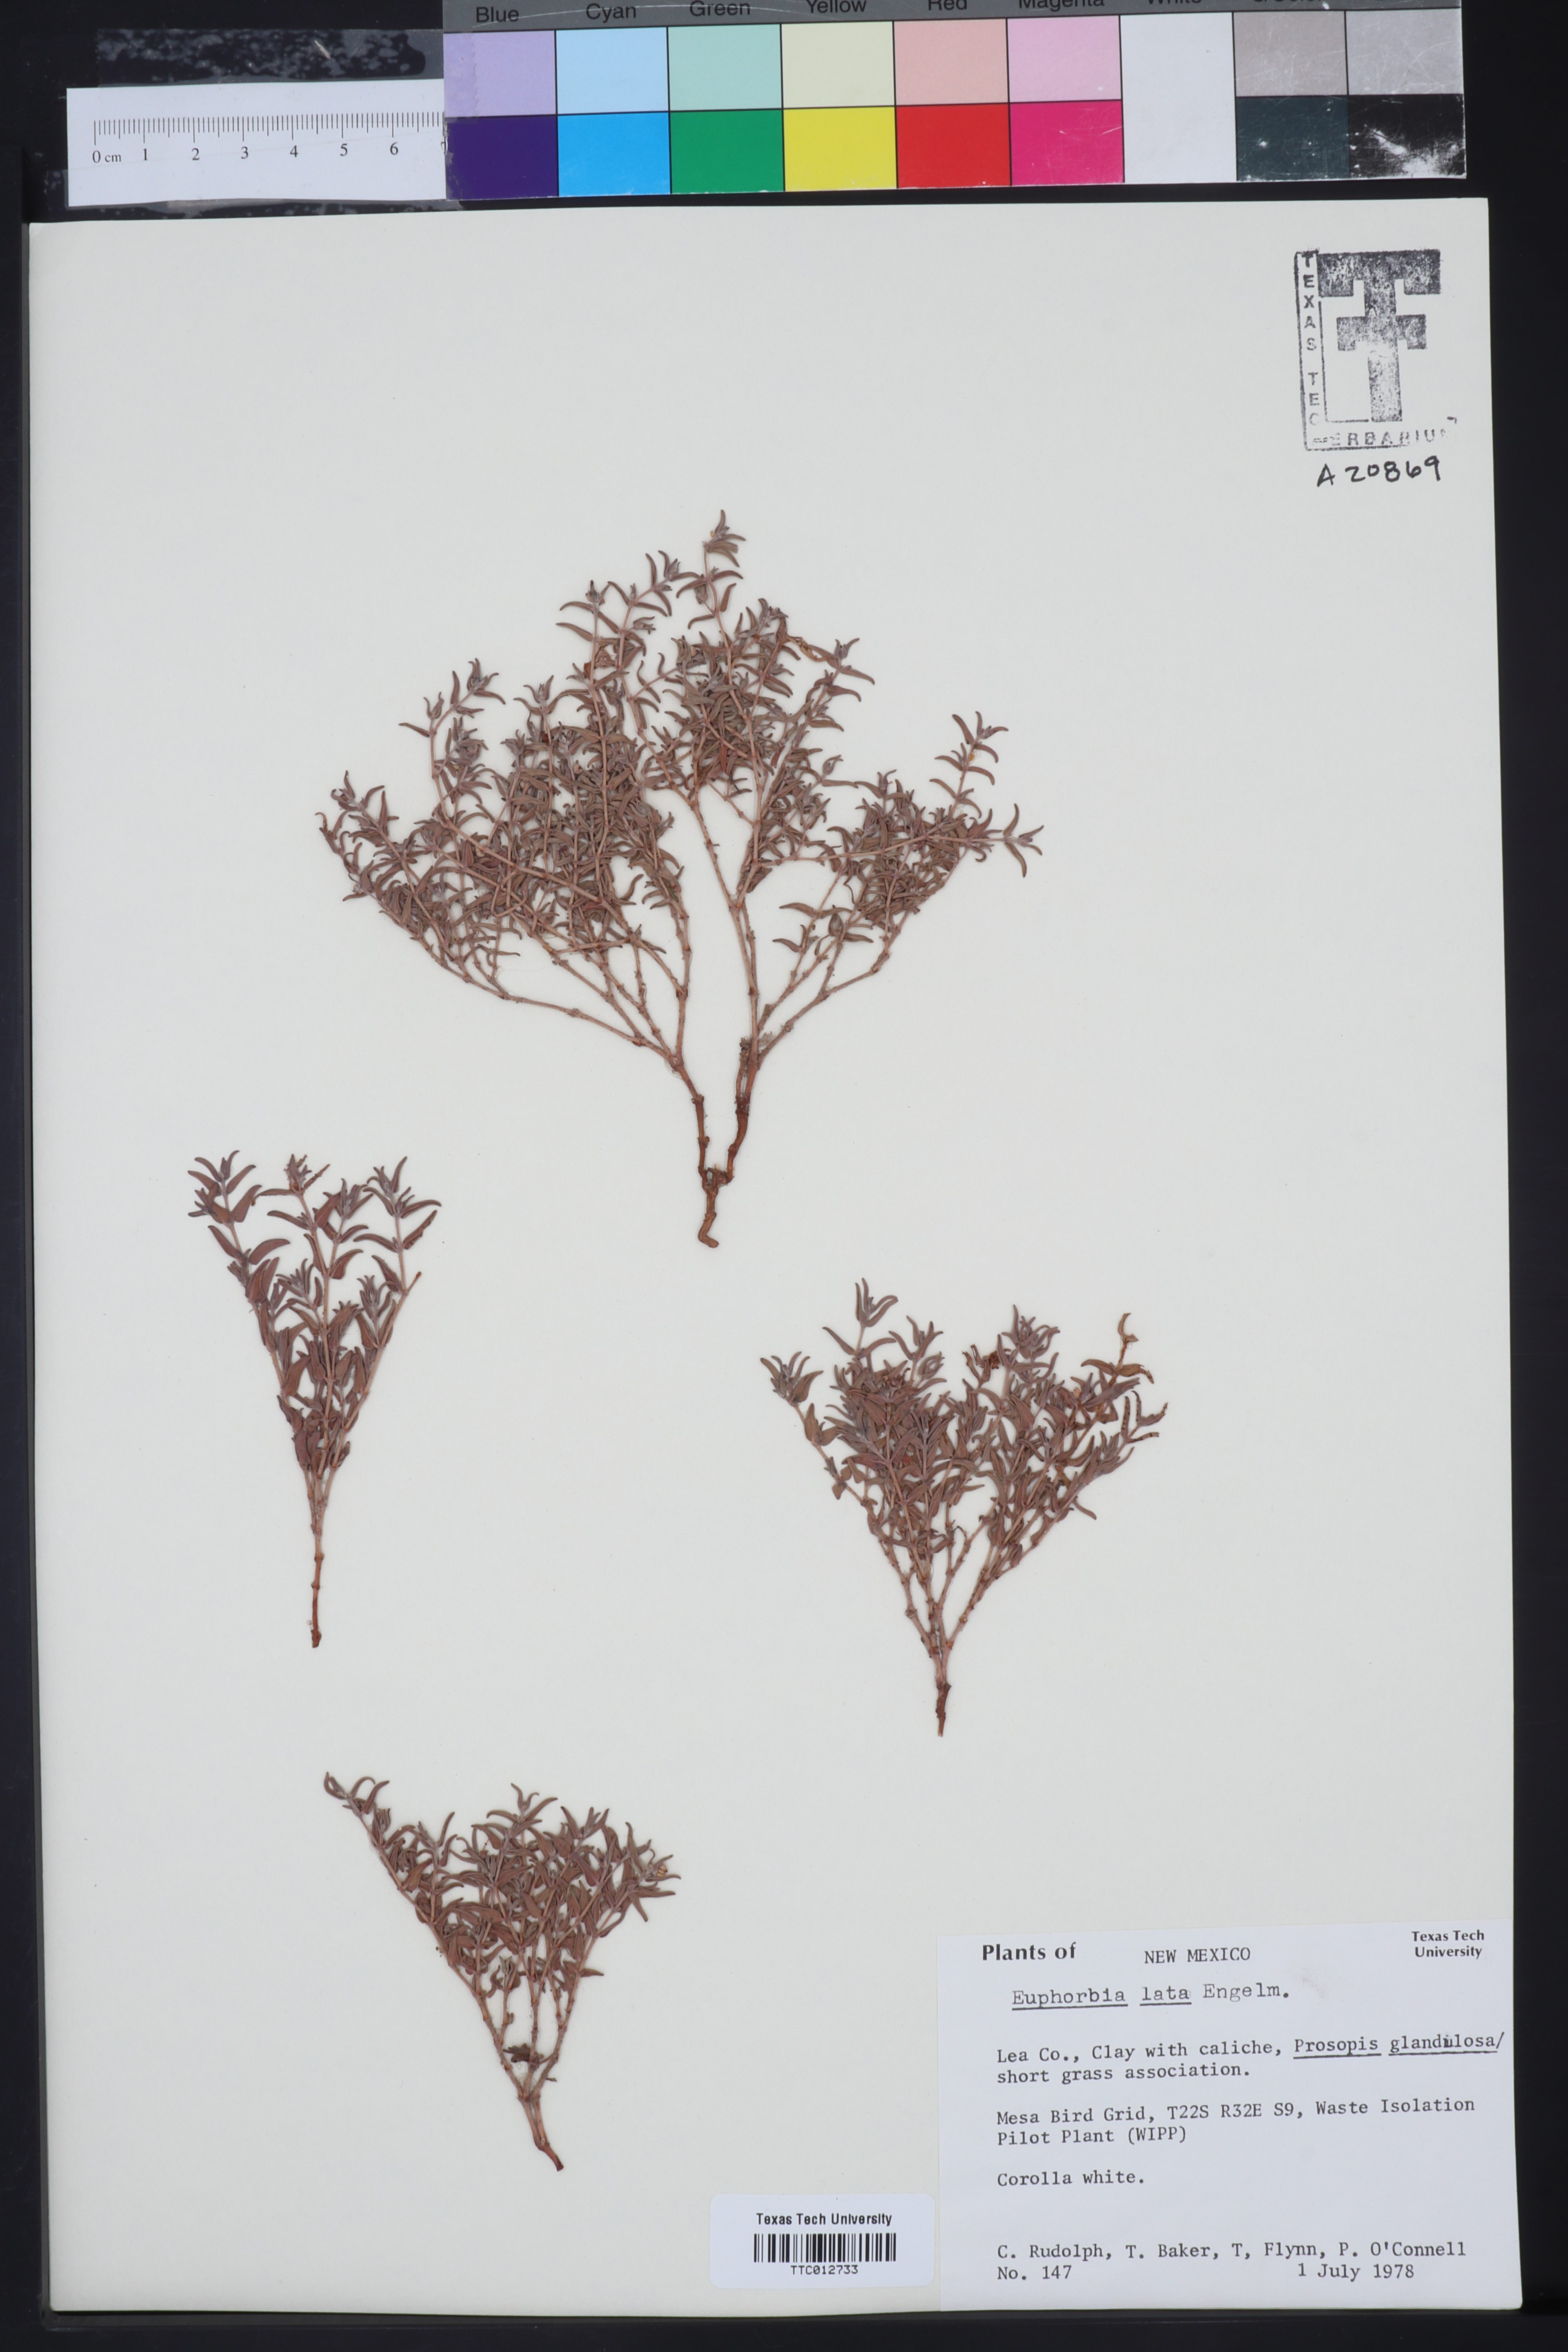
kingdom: Plantae
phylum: Tracheophyta
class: Magnoliopsida
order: Malpighiales
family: Euphorbiaceae
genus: Euphorbia
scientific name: Euphorbia lata
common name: Hoary euphorbia
